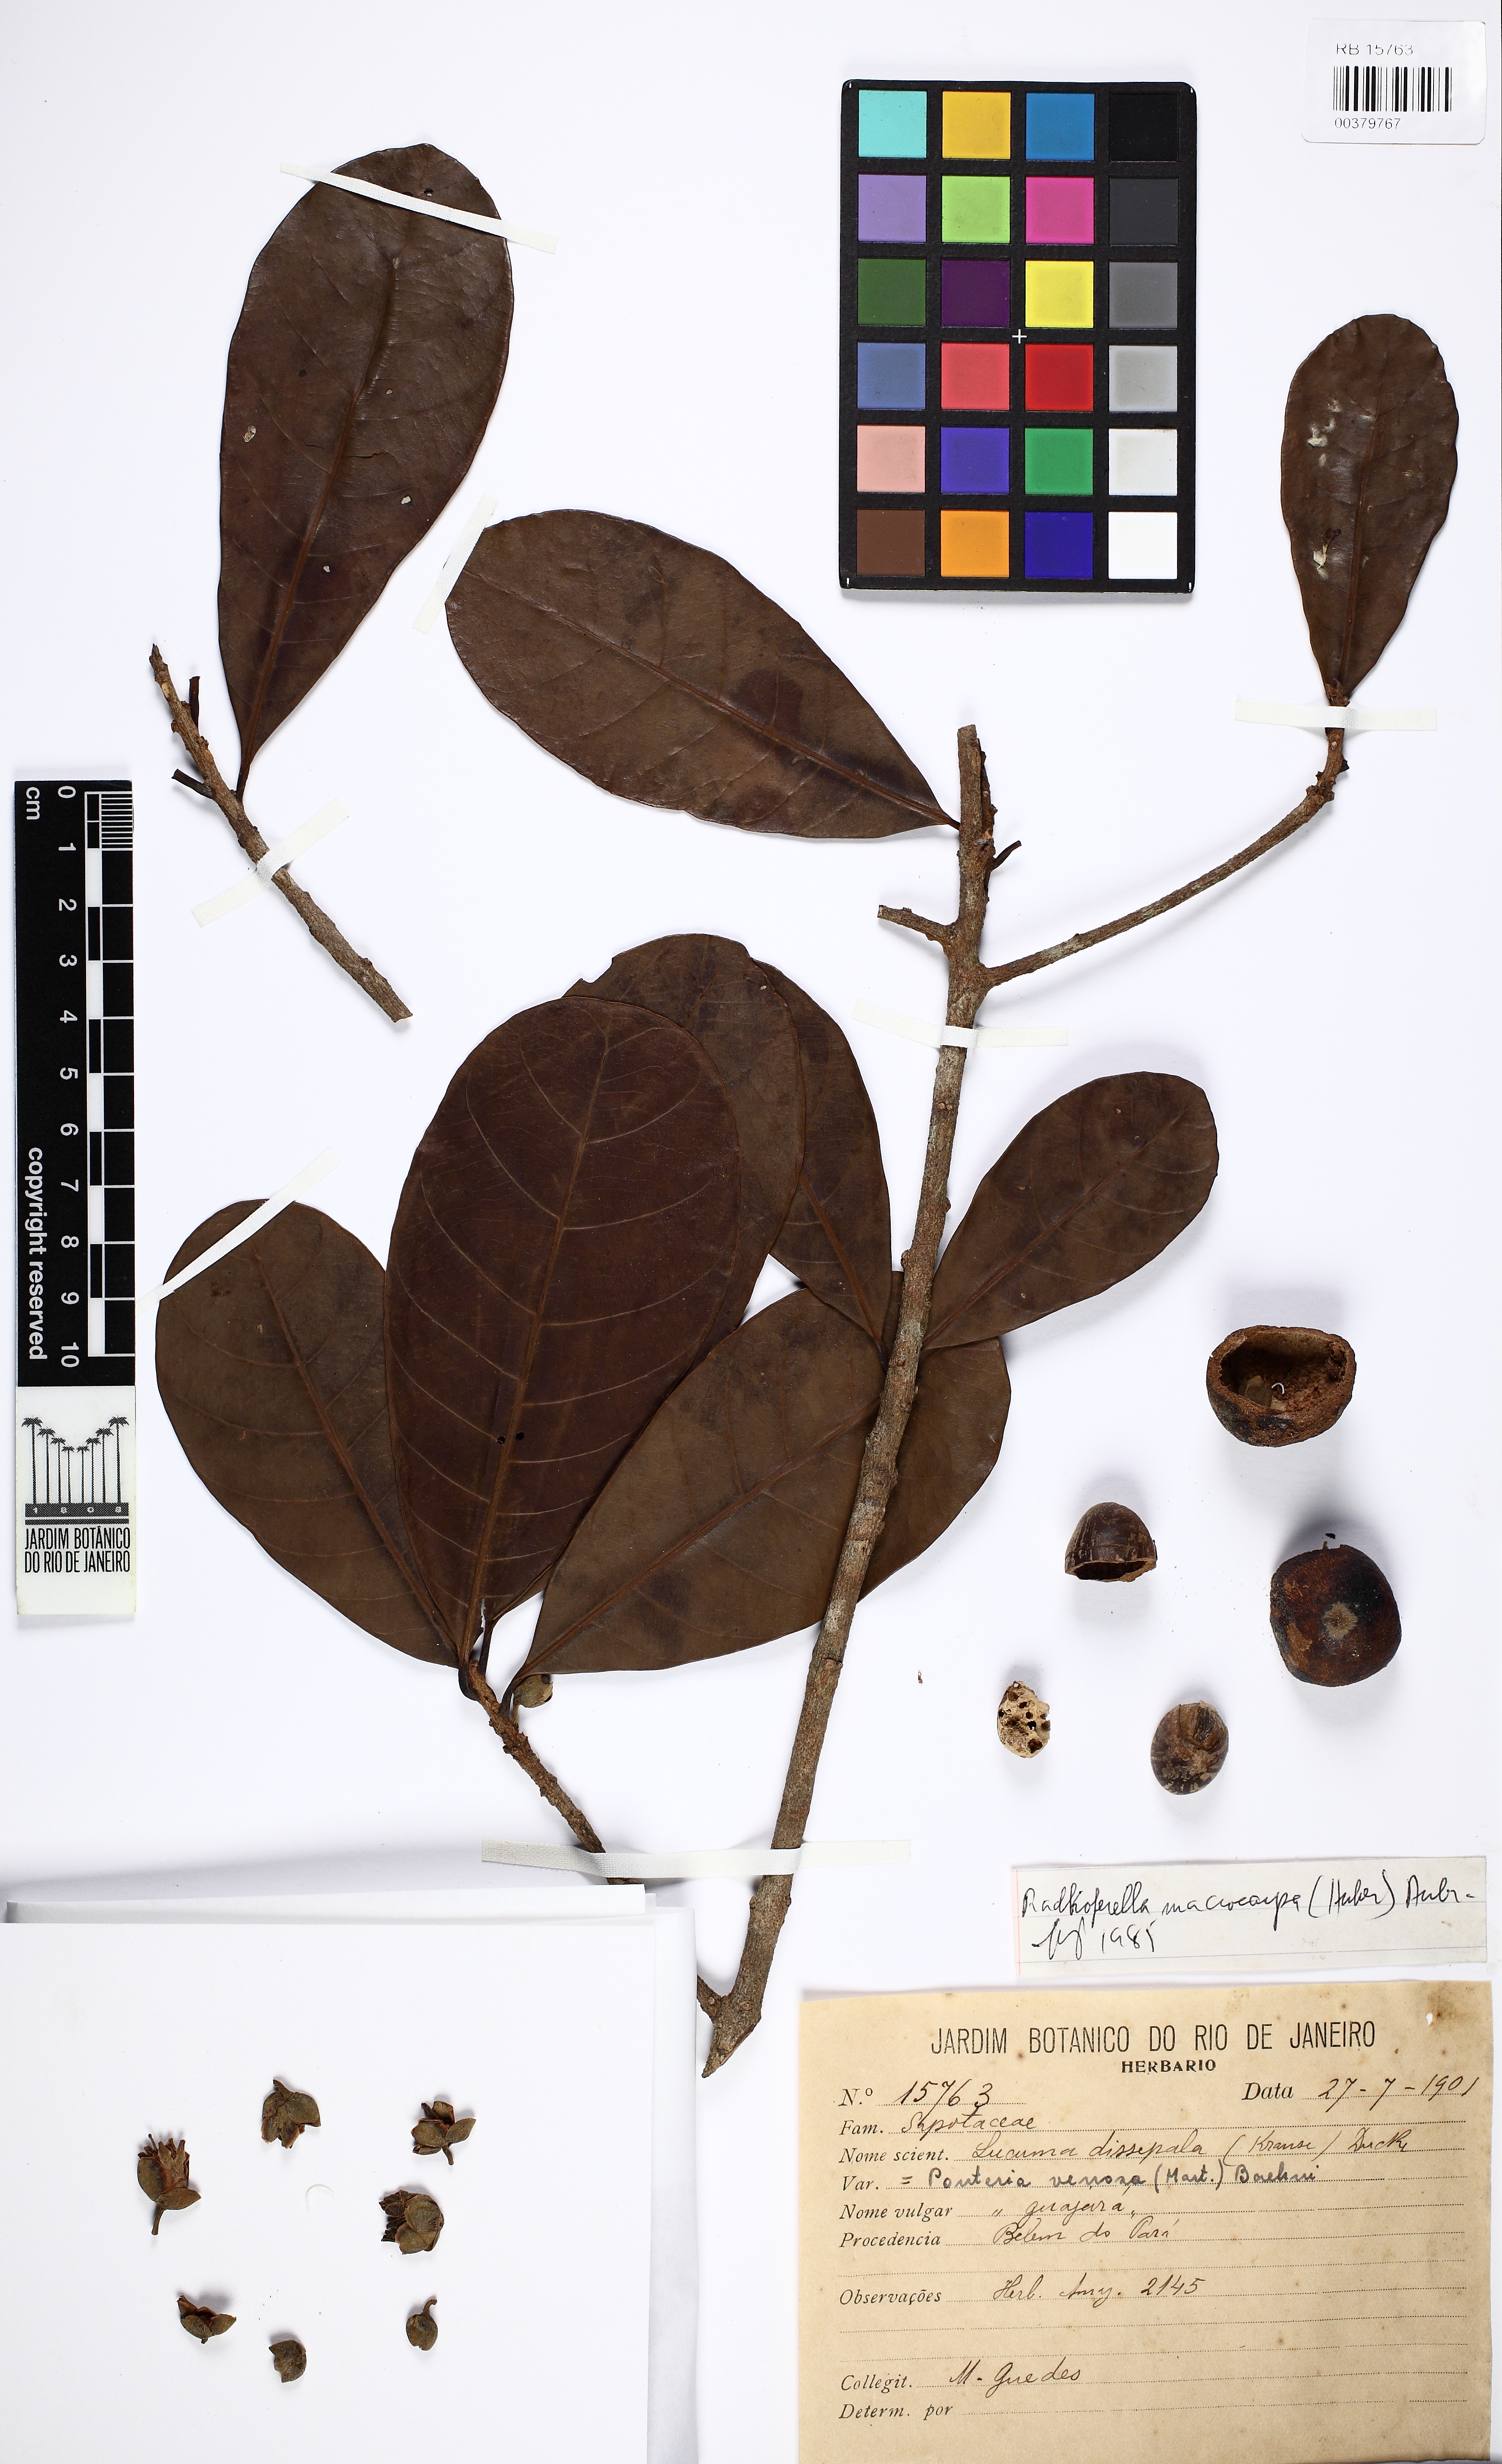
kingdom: Plantae
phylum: Tracheophyta
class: Magnoliopsida
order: Ericales
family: Sapotaceae
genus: Pouteria
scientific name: Pouteria multiflora
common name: Bullytree
